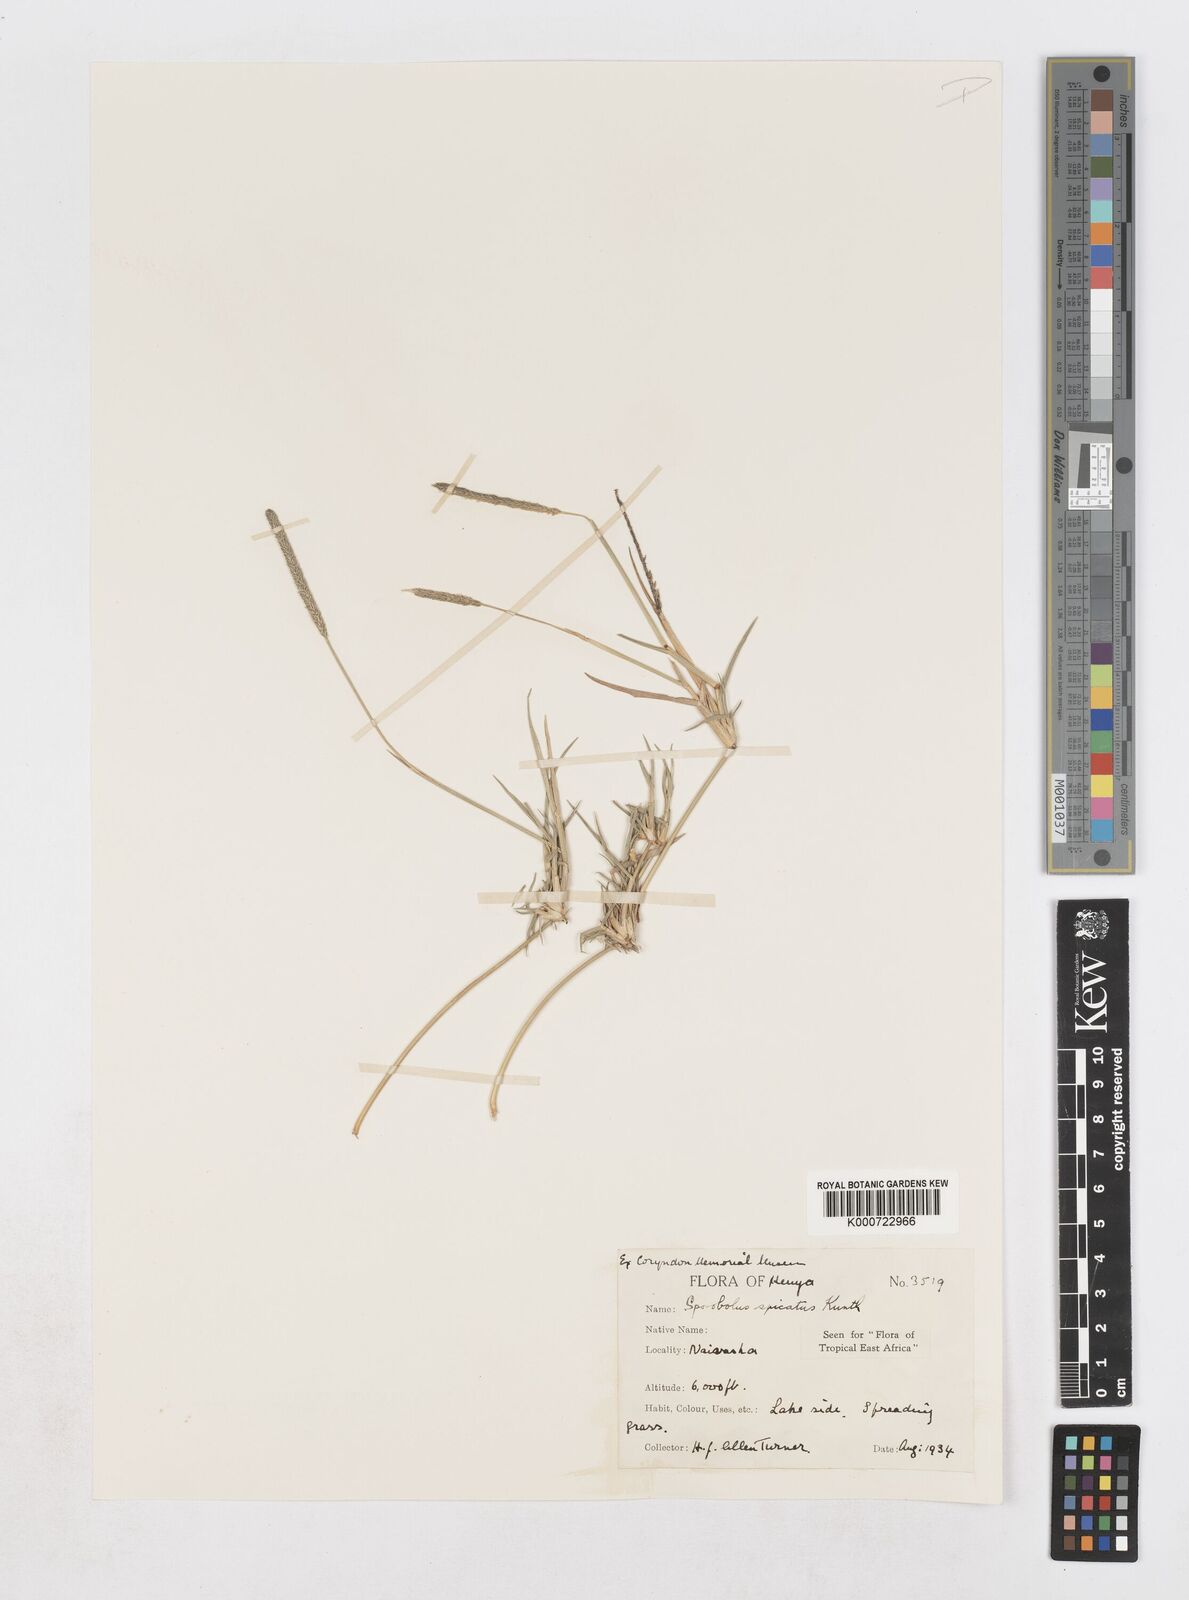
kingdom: Plantae
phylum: Tracheophyta
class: Liliopsida
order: Poales
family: Poaceae
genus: Sporobolus
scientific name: Sporobolus spicatus
